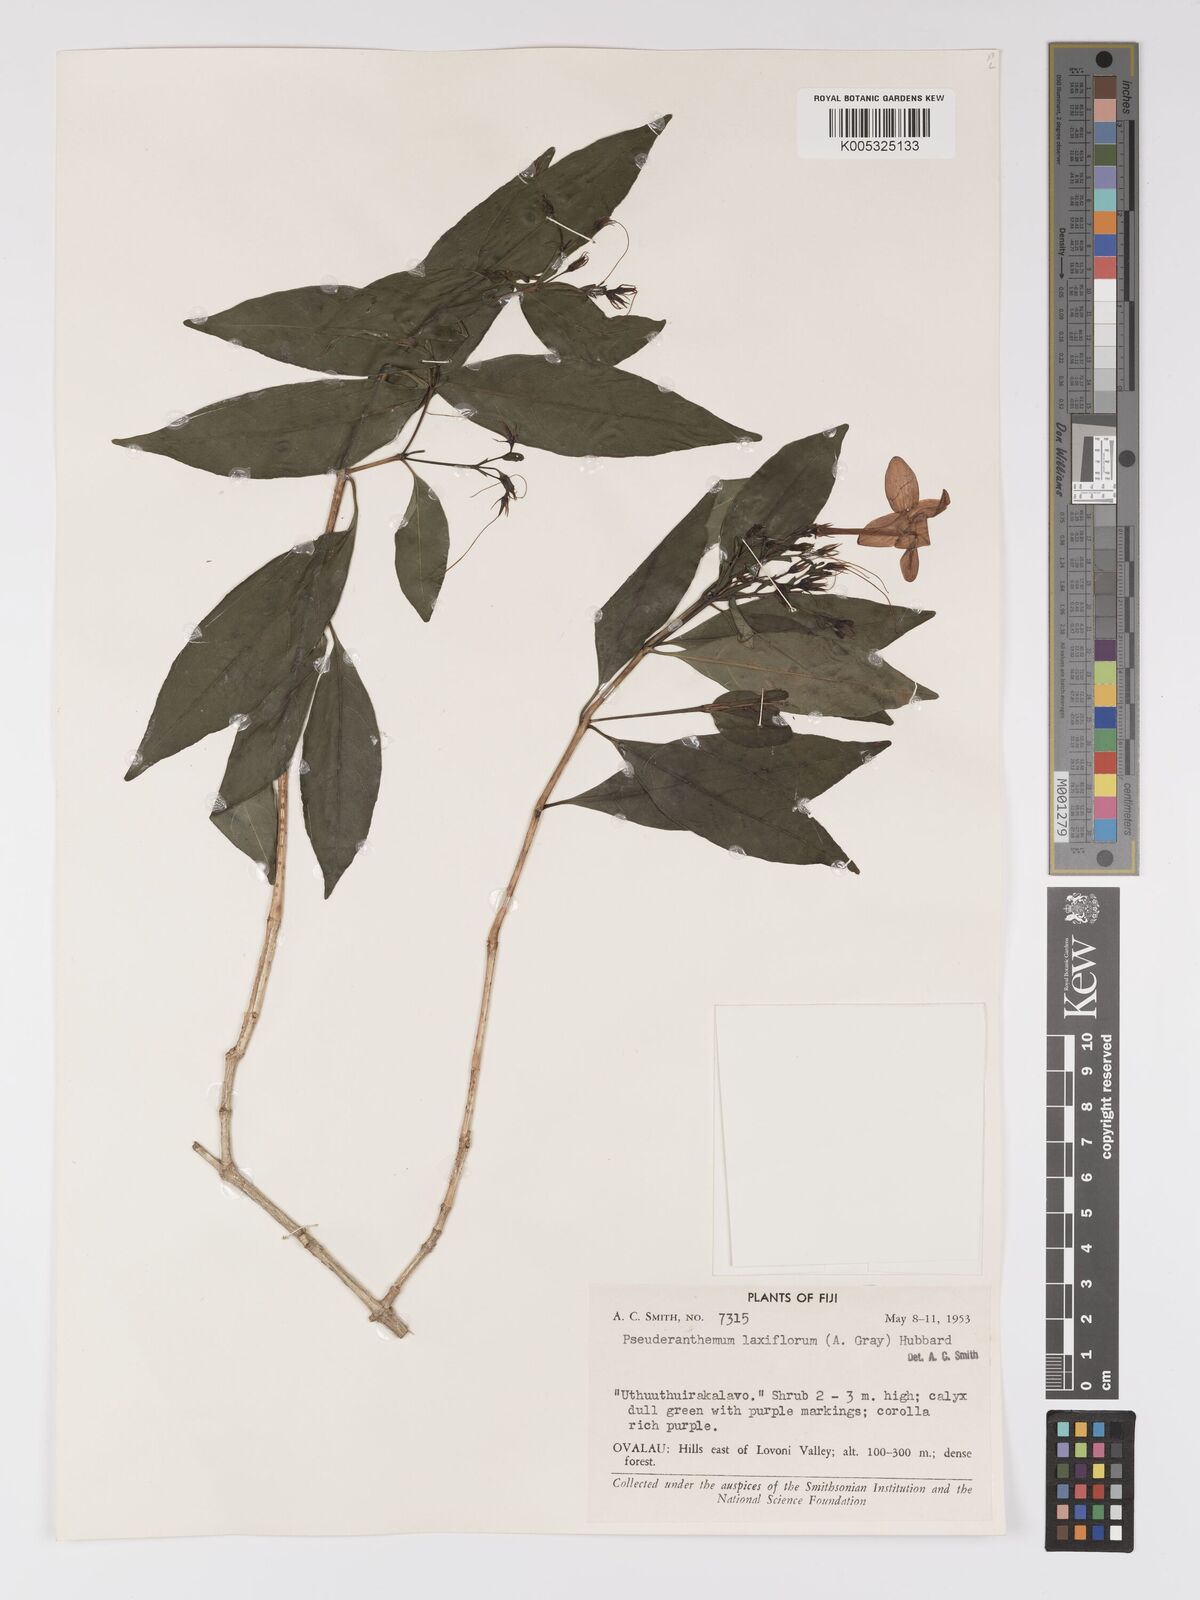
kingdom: Plantae
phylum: Tracheophyta
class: Magnoliopsida
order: Lamiales
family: Acanthaceae
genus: Pseuderanthemum
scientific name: Pseuderanthemum laxiflorum
